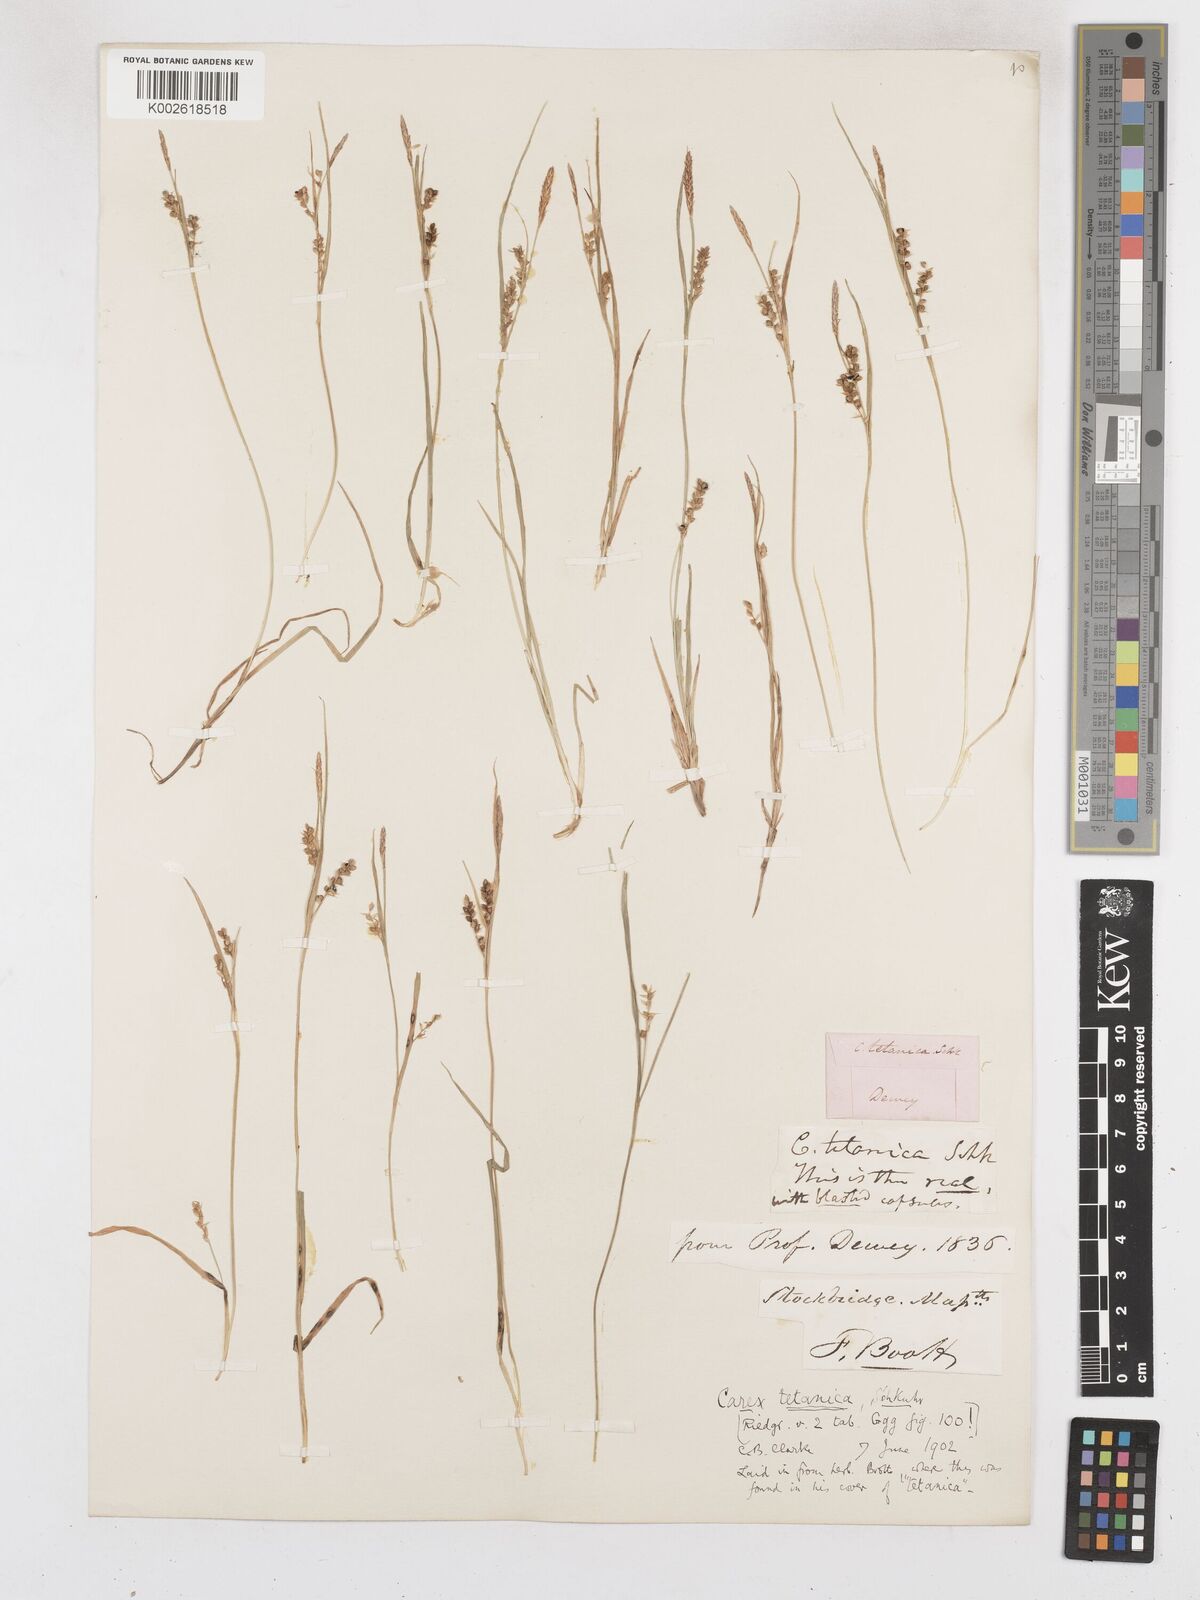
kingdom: Plantae
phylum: Tracheophyta
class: Liliopsida
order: Poales
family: Cyperaceae
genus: Carex
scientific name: Carex tetanica
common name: Rigid sedge
